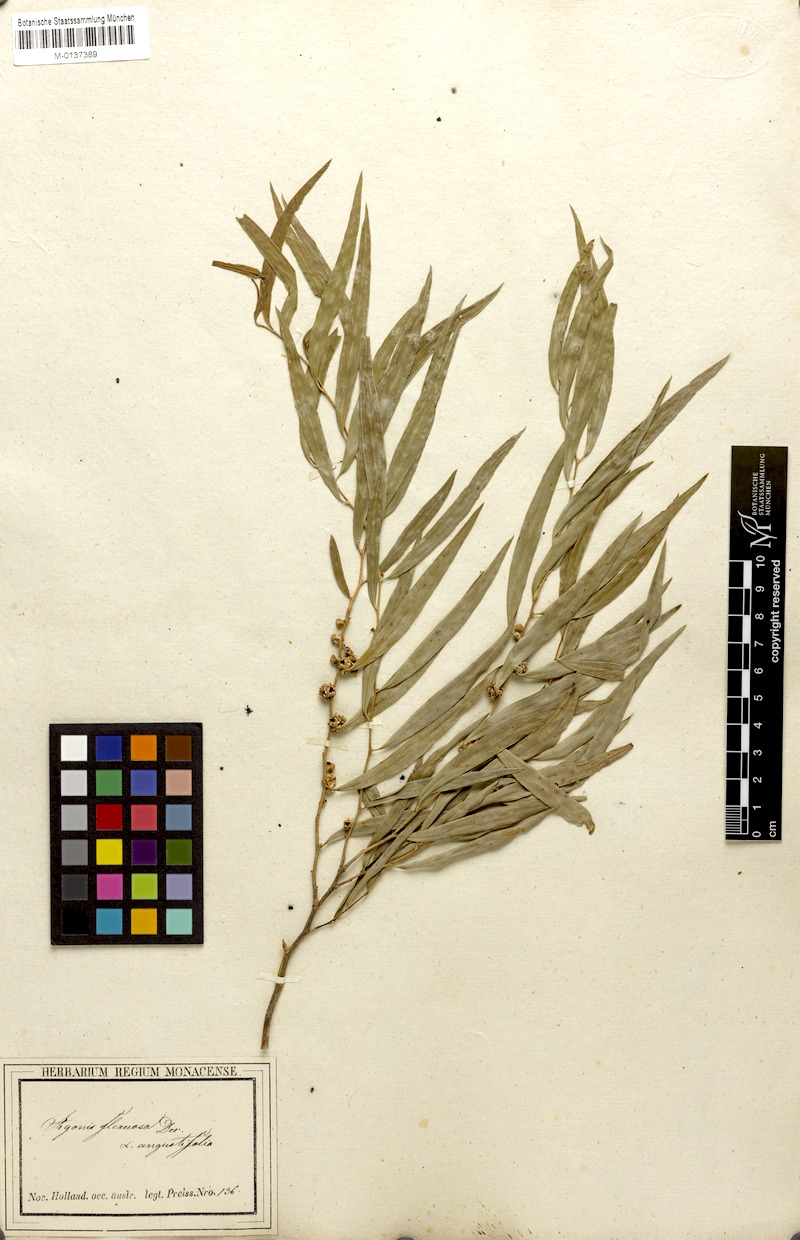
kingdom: Plantae
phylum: Tracheophyta
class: Magnoliopsida
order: Myrtales
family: Myrtaceae
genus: Agonis
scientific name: Agonis flexuosa
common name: Willow myrtle
